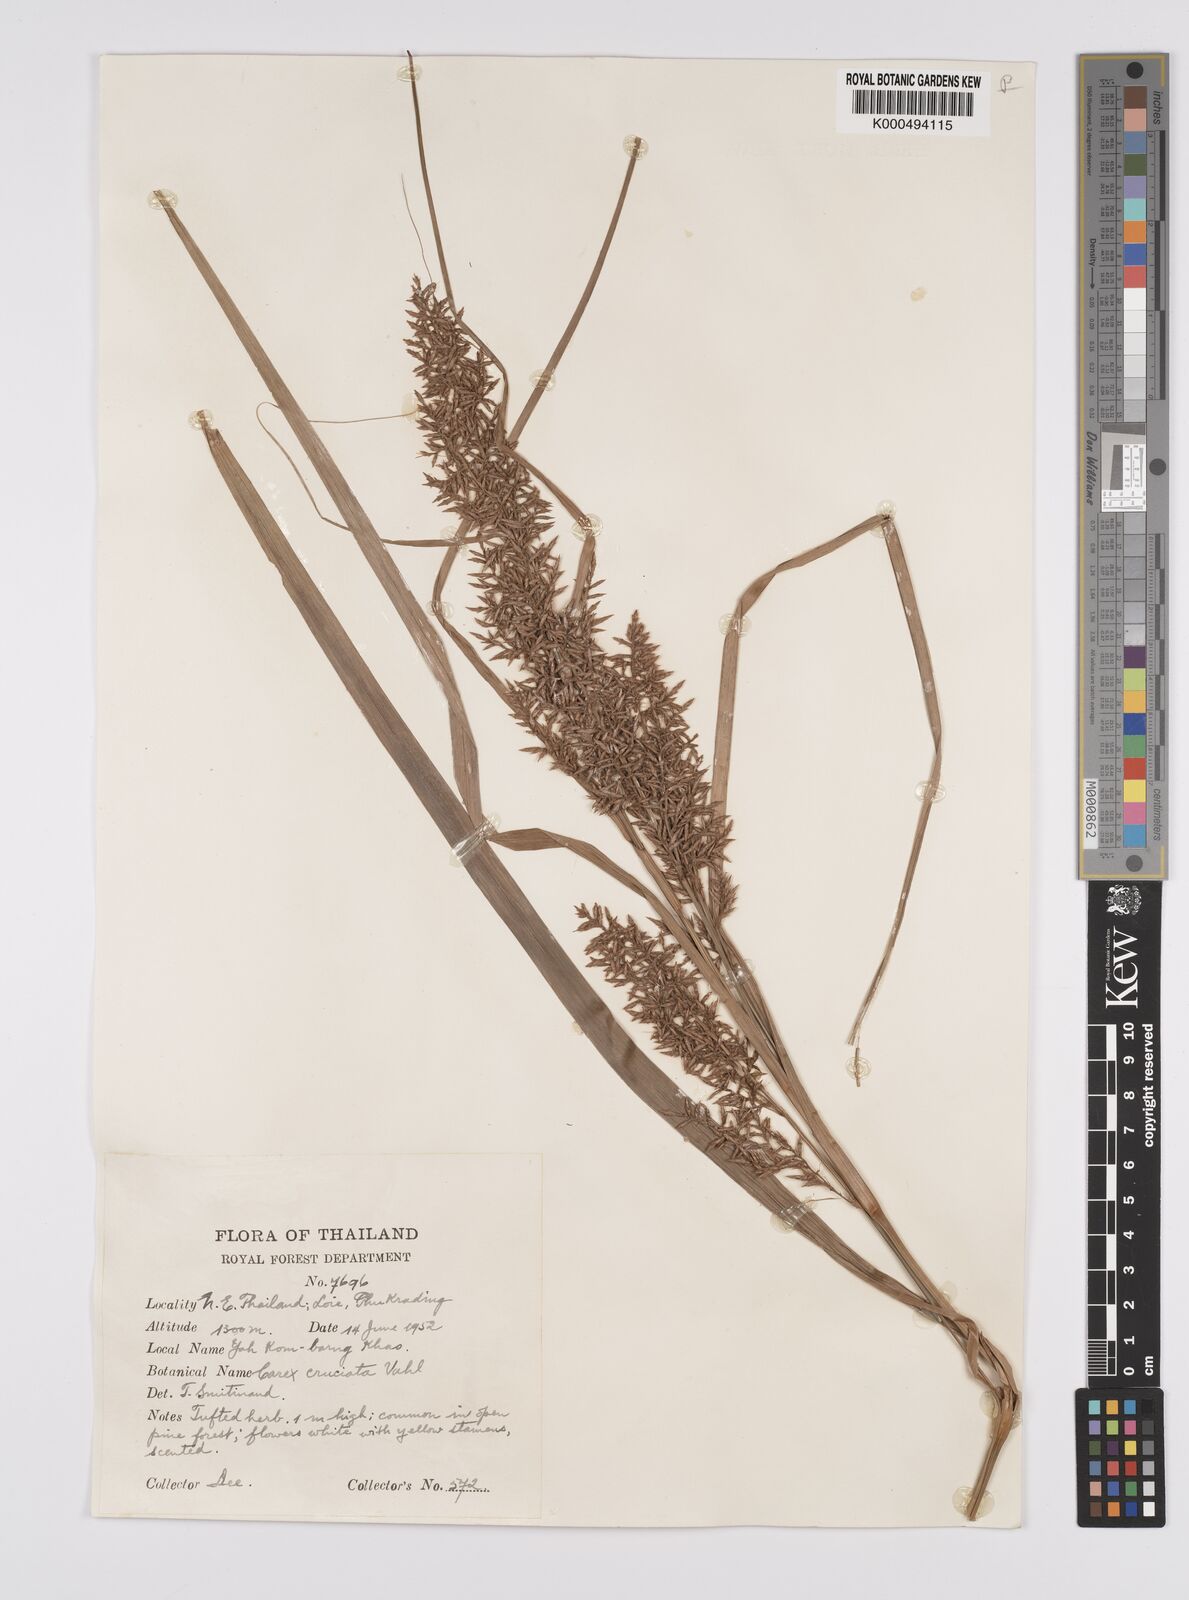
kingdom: Plantae
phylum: Tracheophyta
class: Liliopsida
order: Poales
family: Cyperaceae
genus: Carex
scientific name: Carex cruciata
